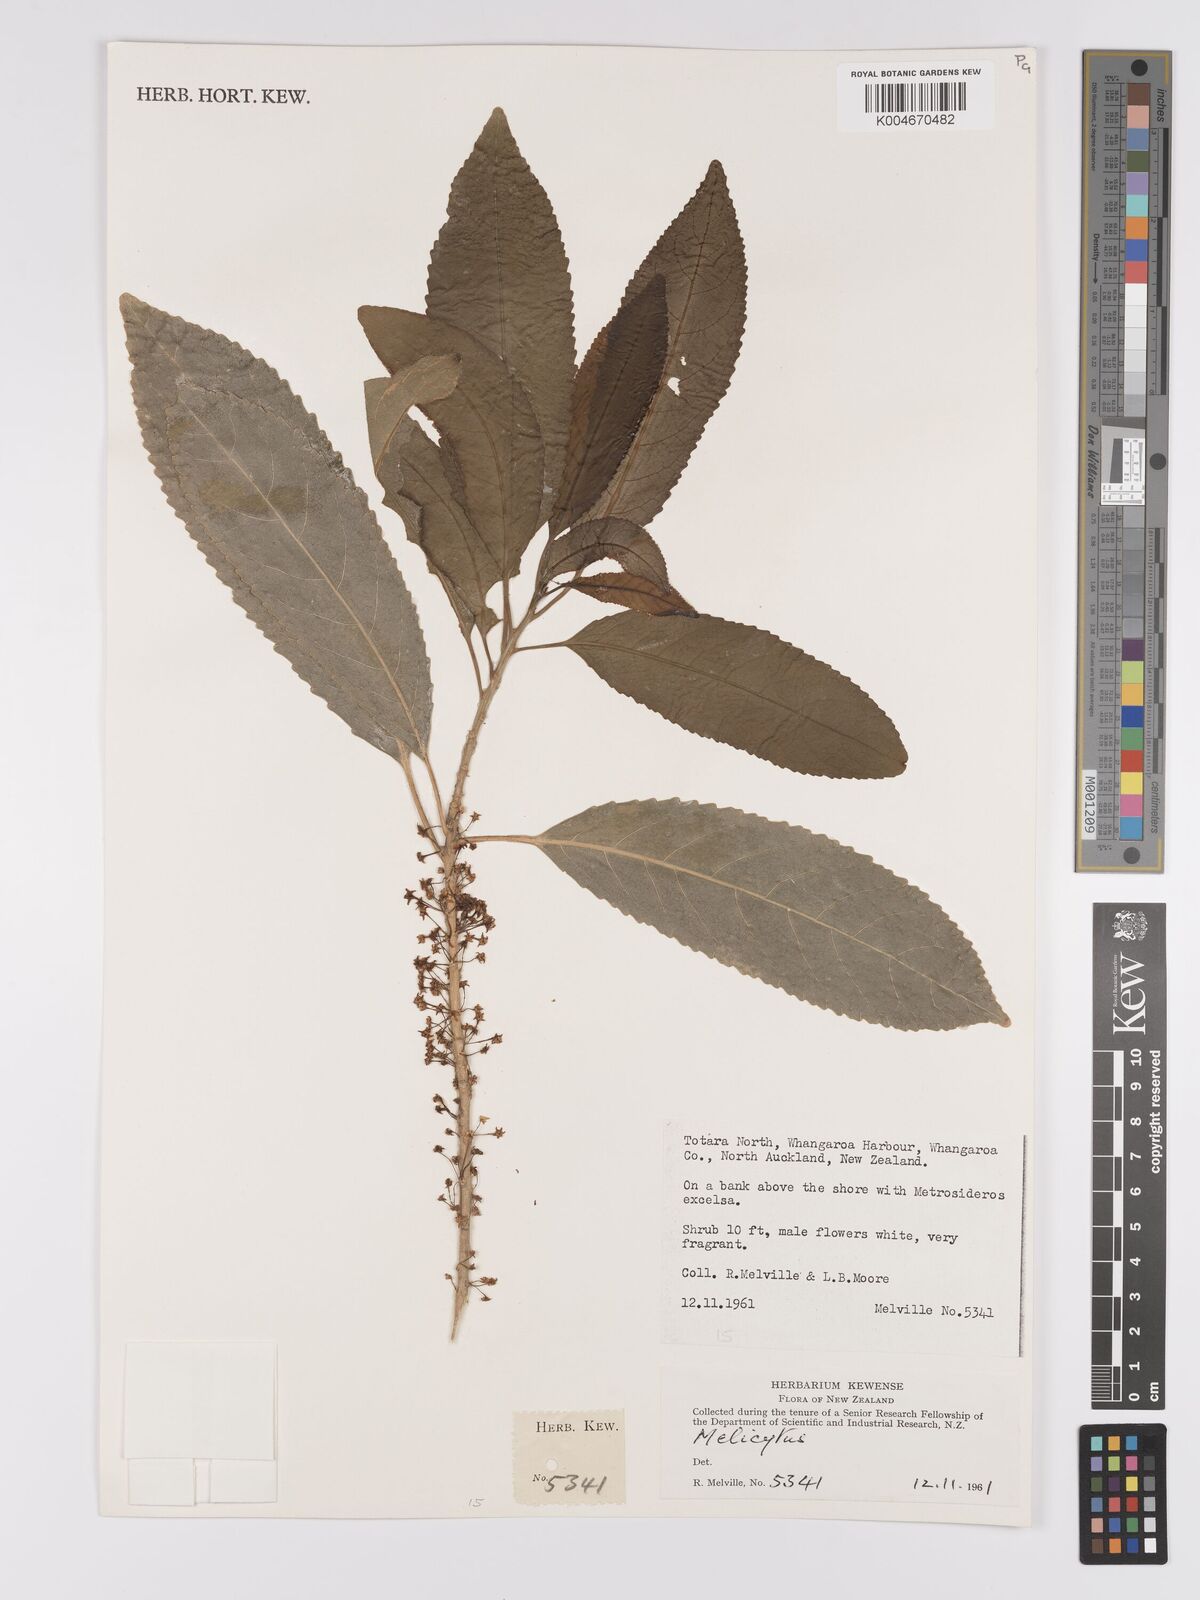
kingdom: Plantae
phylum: Tracheophyta
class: Magnoliopsida
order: Malpighiales
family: Violaceae
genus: Melicytus
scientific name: Melicytus
